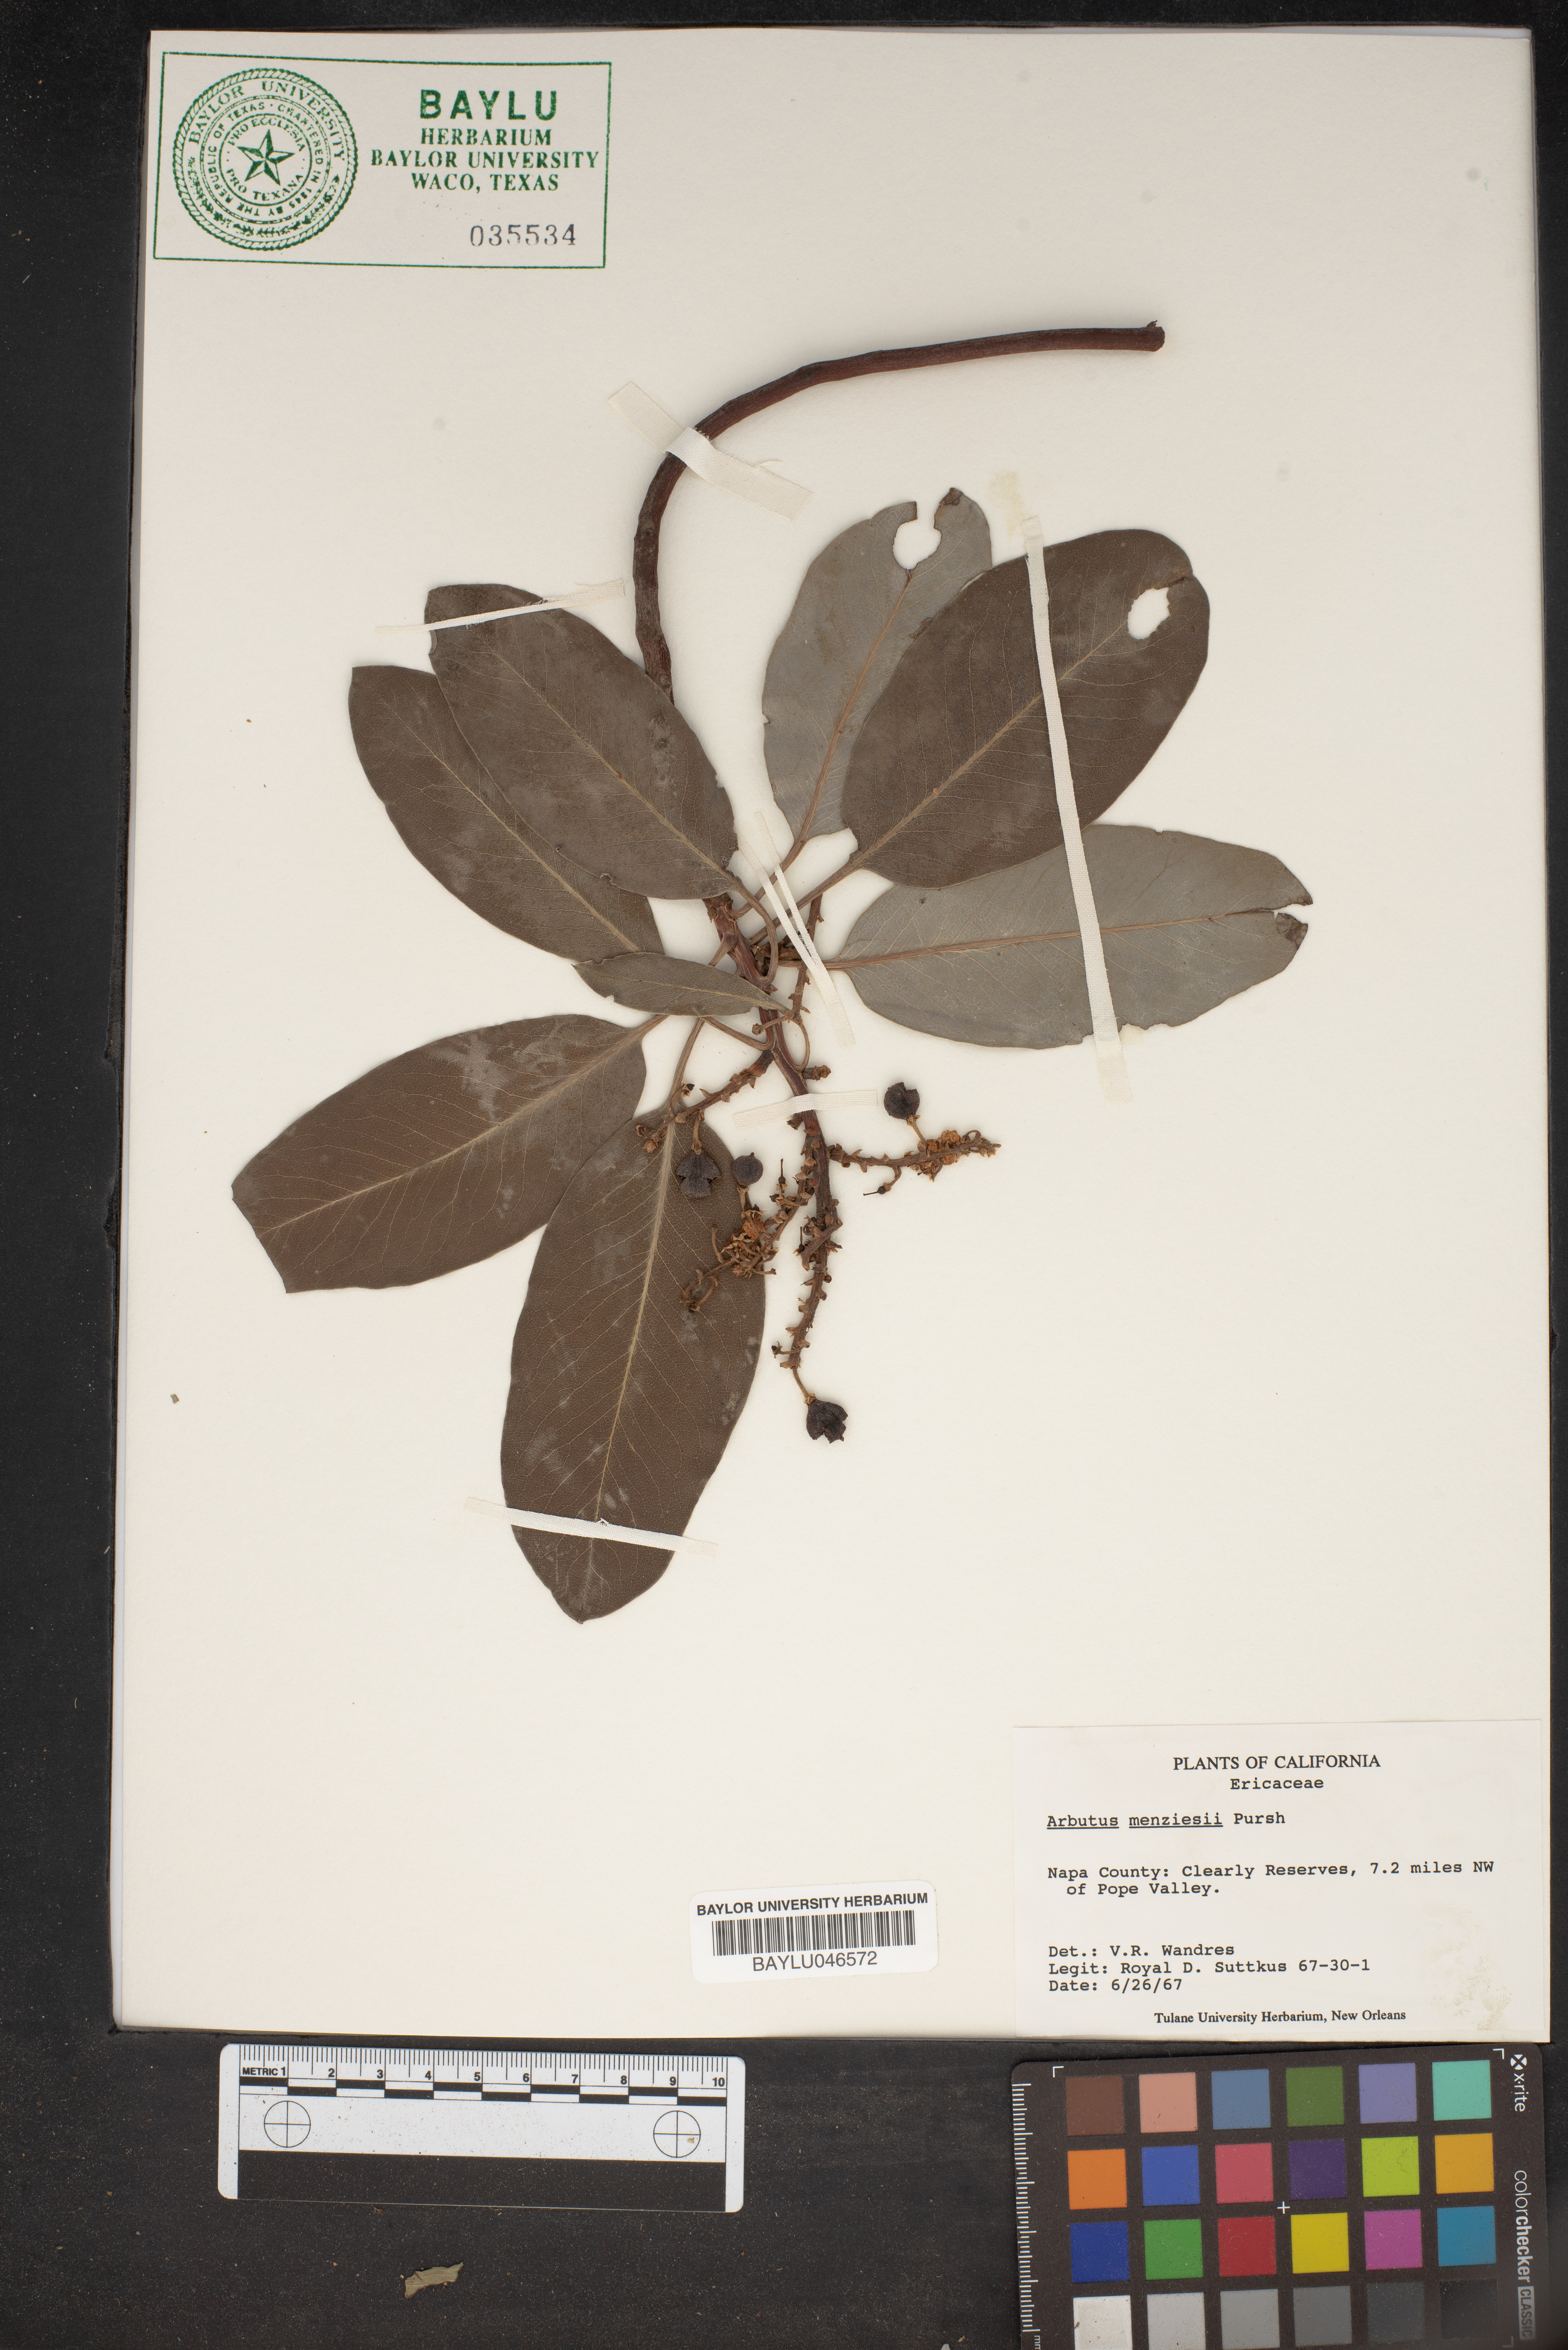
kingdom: Plantae
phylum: Tracheophyta
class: Magnoliopsida
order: Ericales
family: Ericaceae
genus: Arbutus
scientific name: Arbutus menziesii
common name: Pacific madrone
